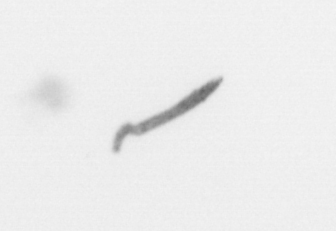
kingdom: Chromista
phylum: Ochrophyta
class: Bacillariophyceae
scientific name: Bacillariophyceae
